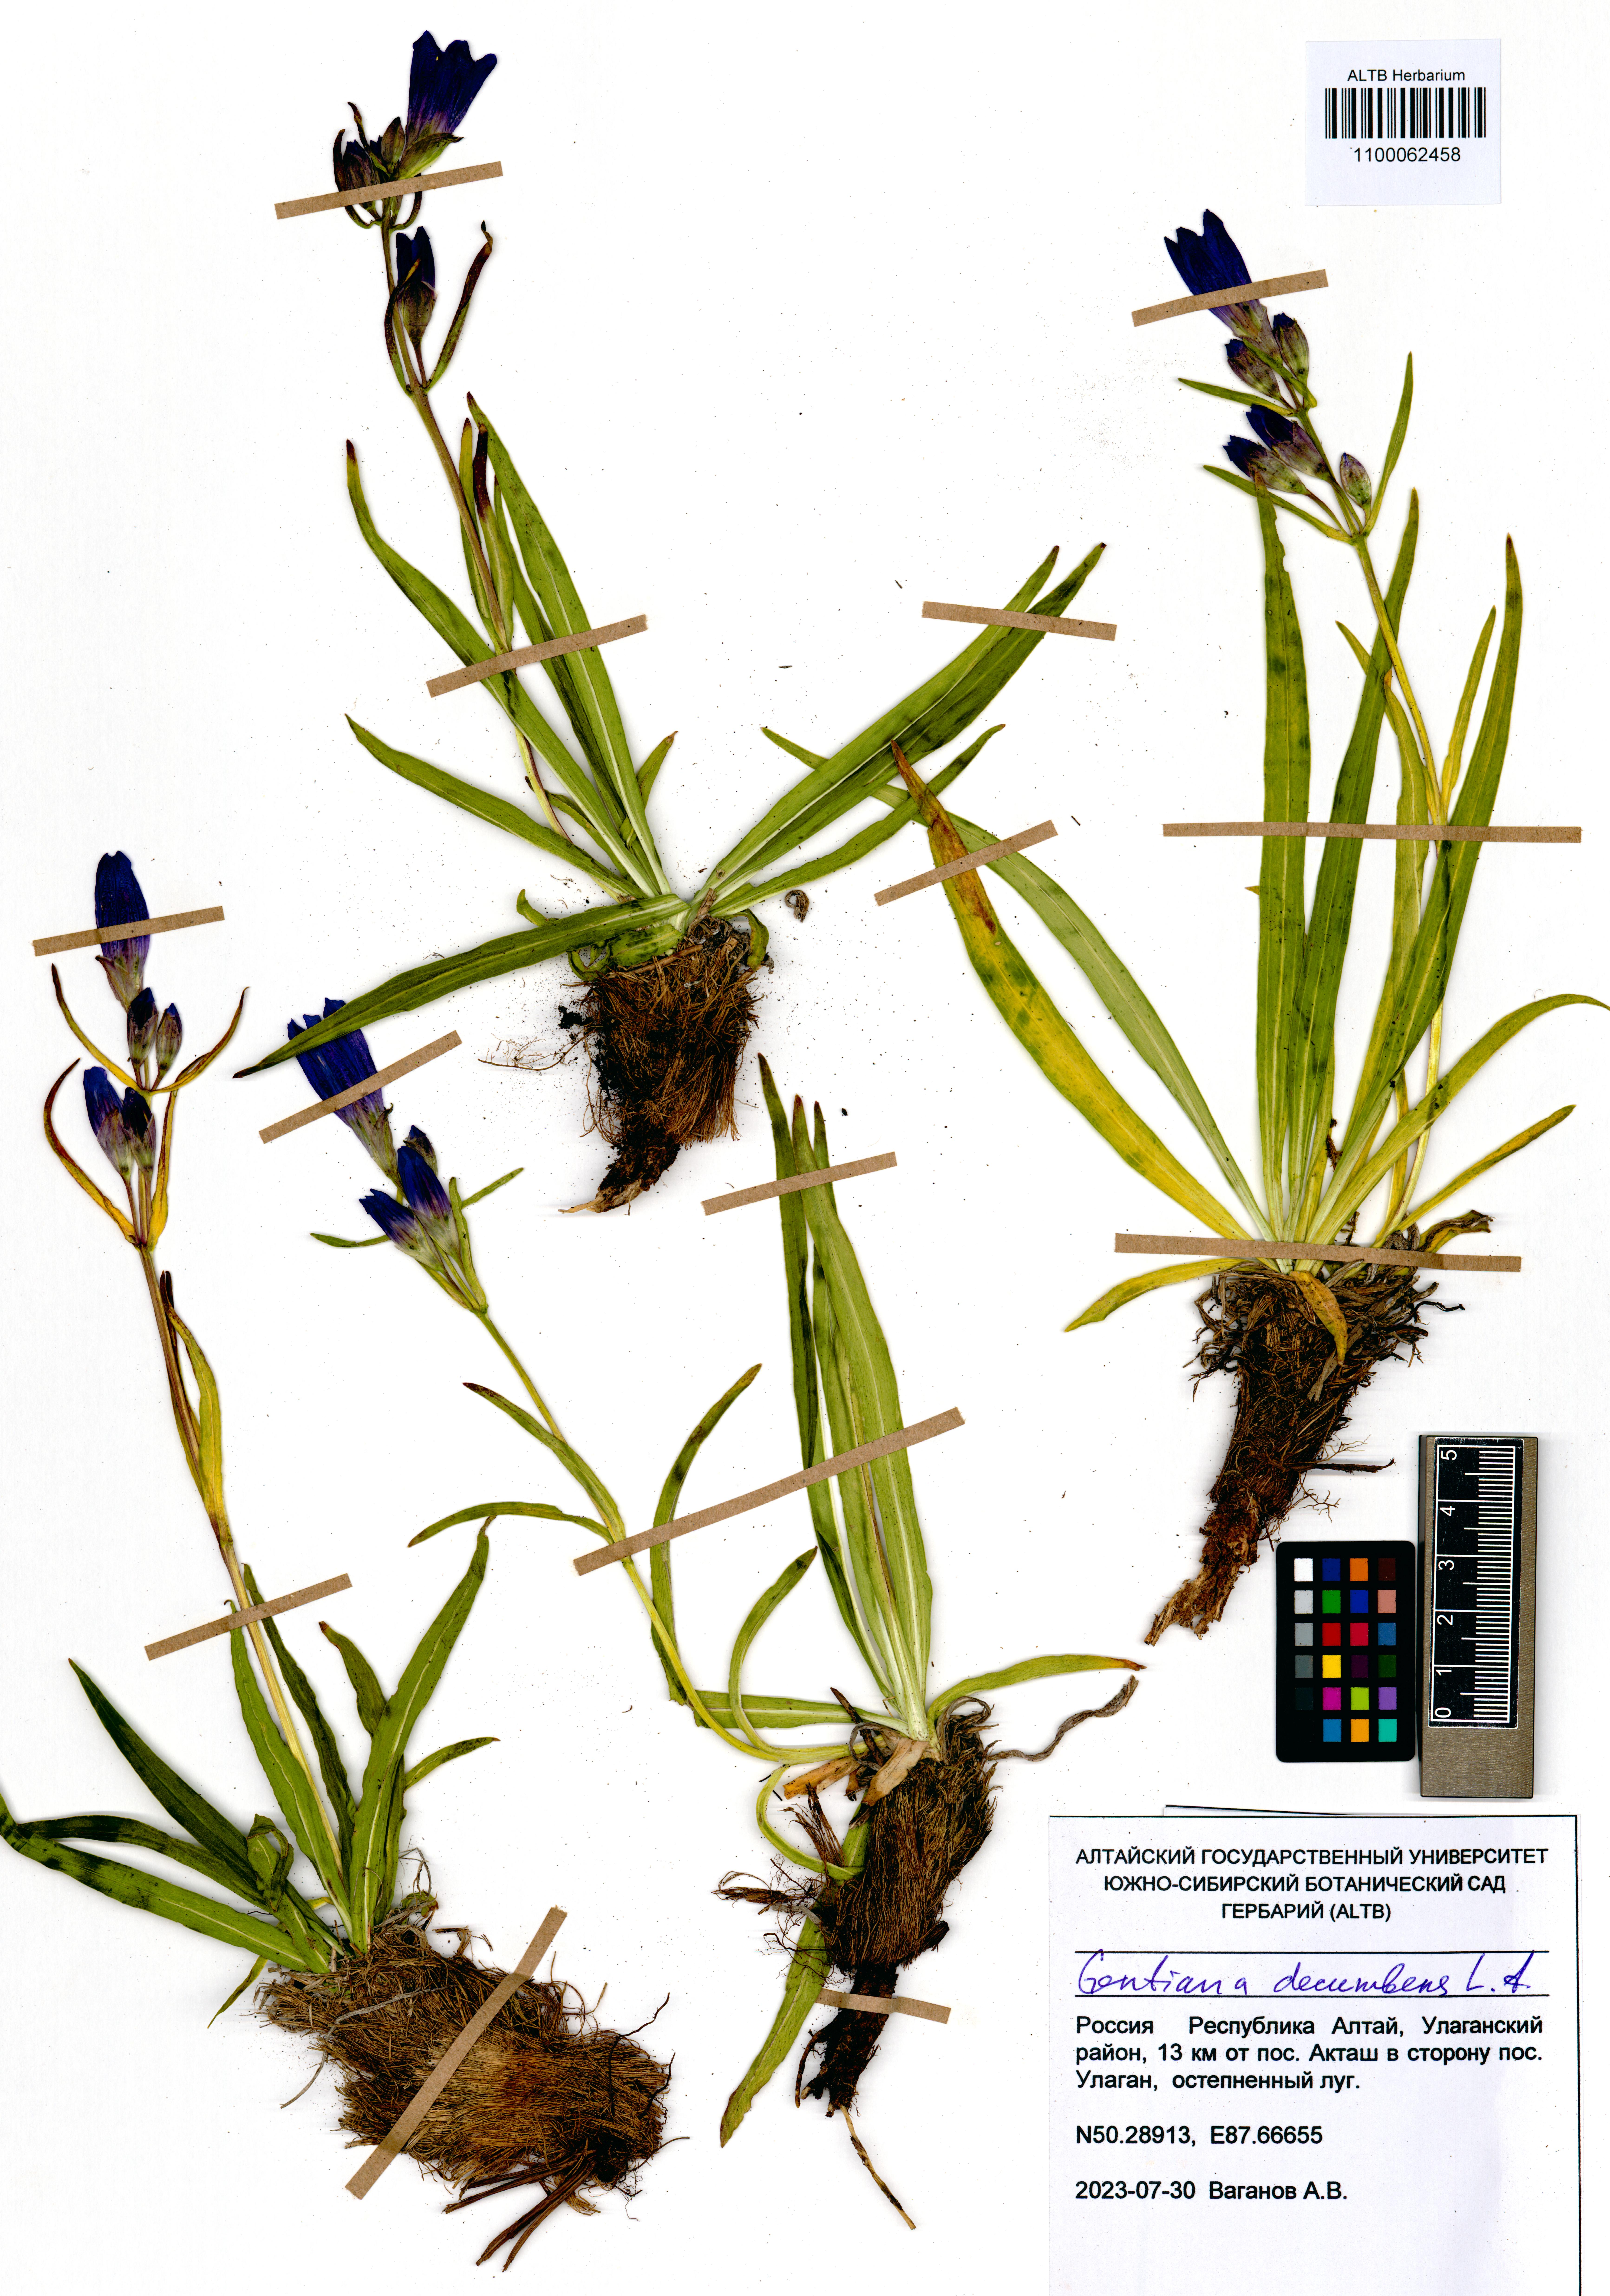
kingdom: Plantae
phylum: Tracheophyta
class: Magnoliopsida
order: Gentianales
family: Gentianaceae
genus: Gentiana
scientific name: Gentiana decumbens
